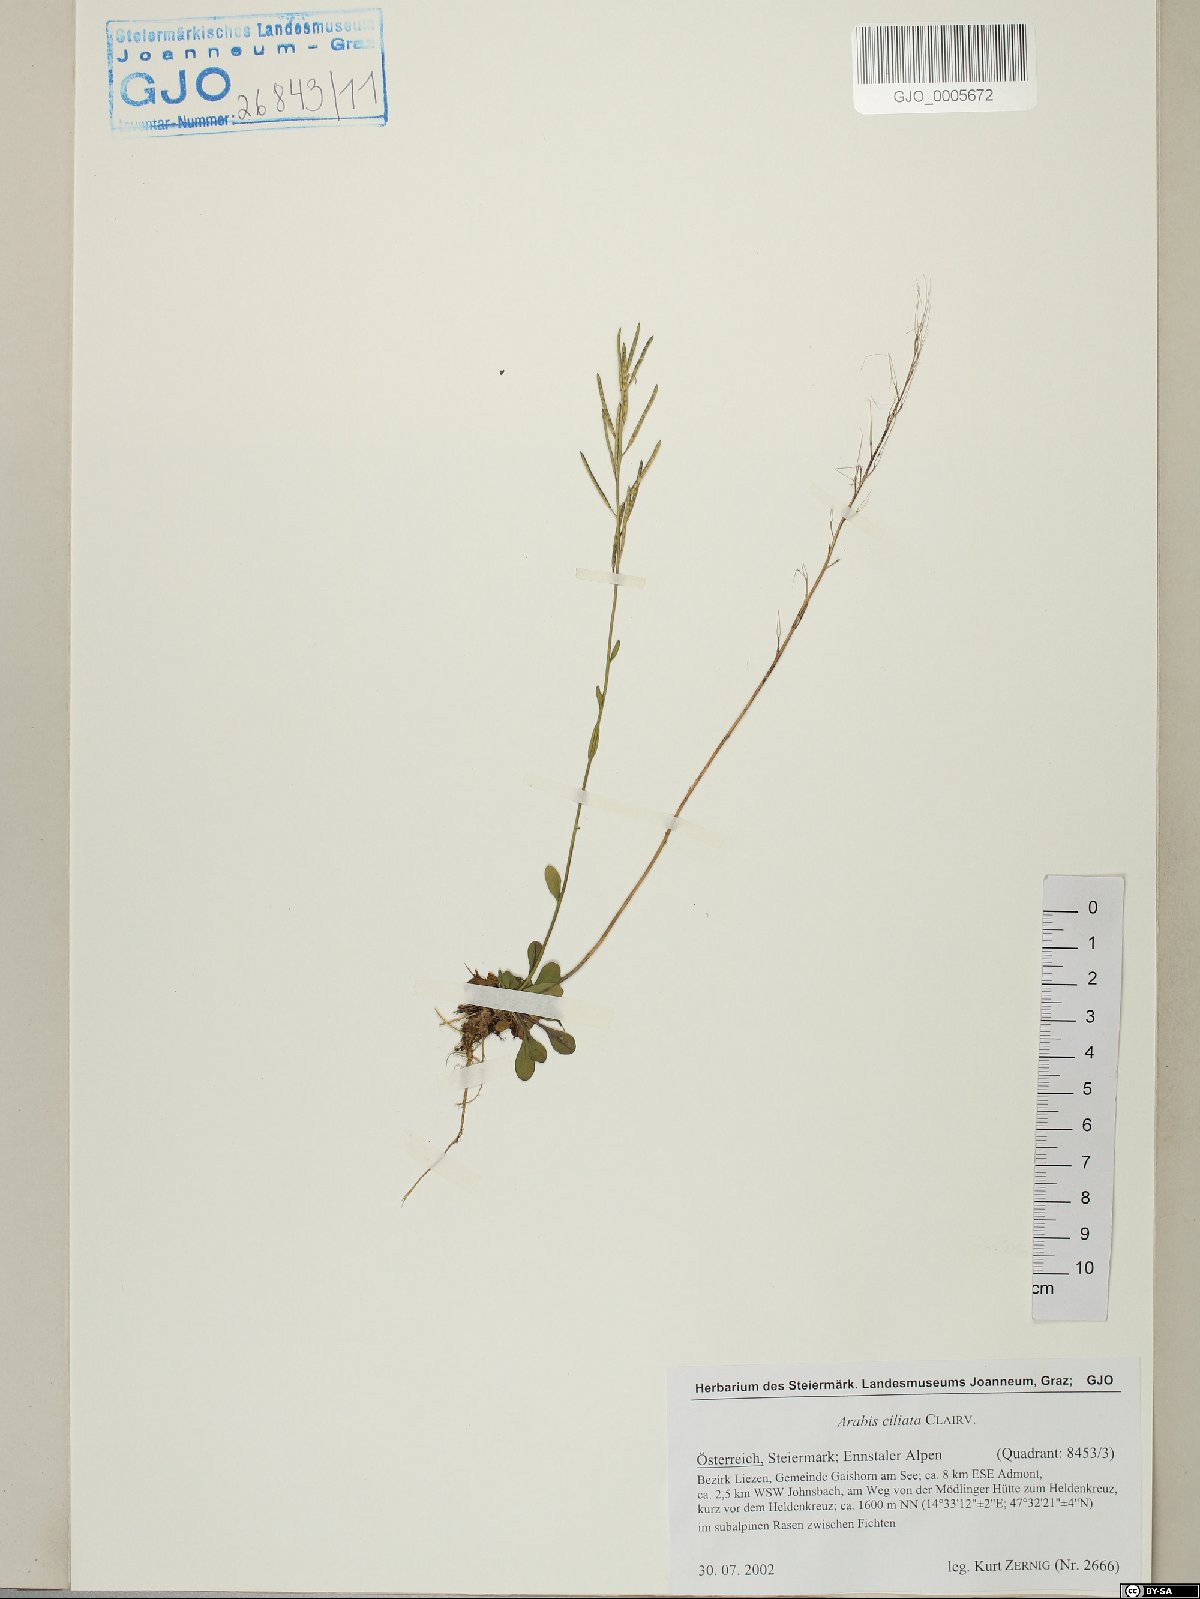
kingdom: Plantae
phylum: Tracheophyta
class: Magnoliopsida
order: Brassicales
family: Brassicaceae
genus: Arabis
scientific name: Arabis ciliata
